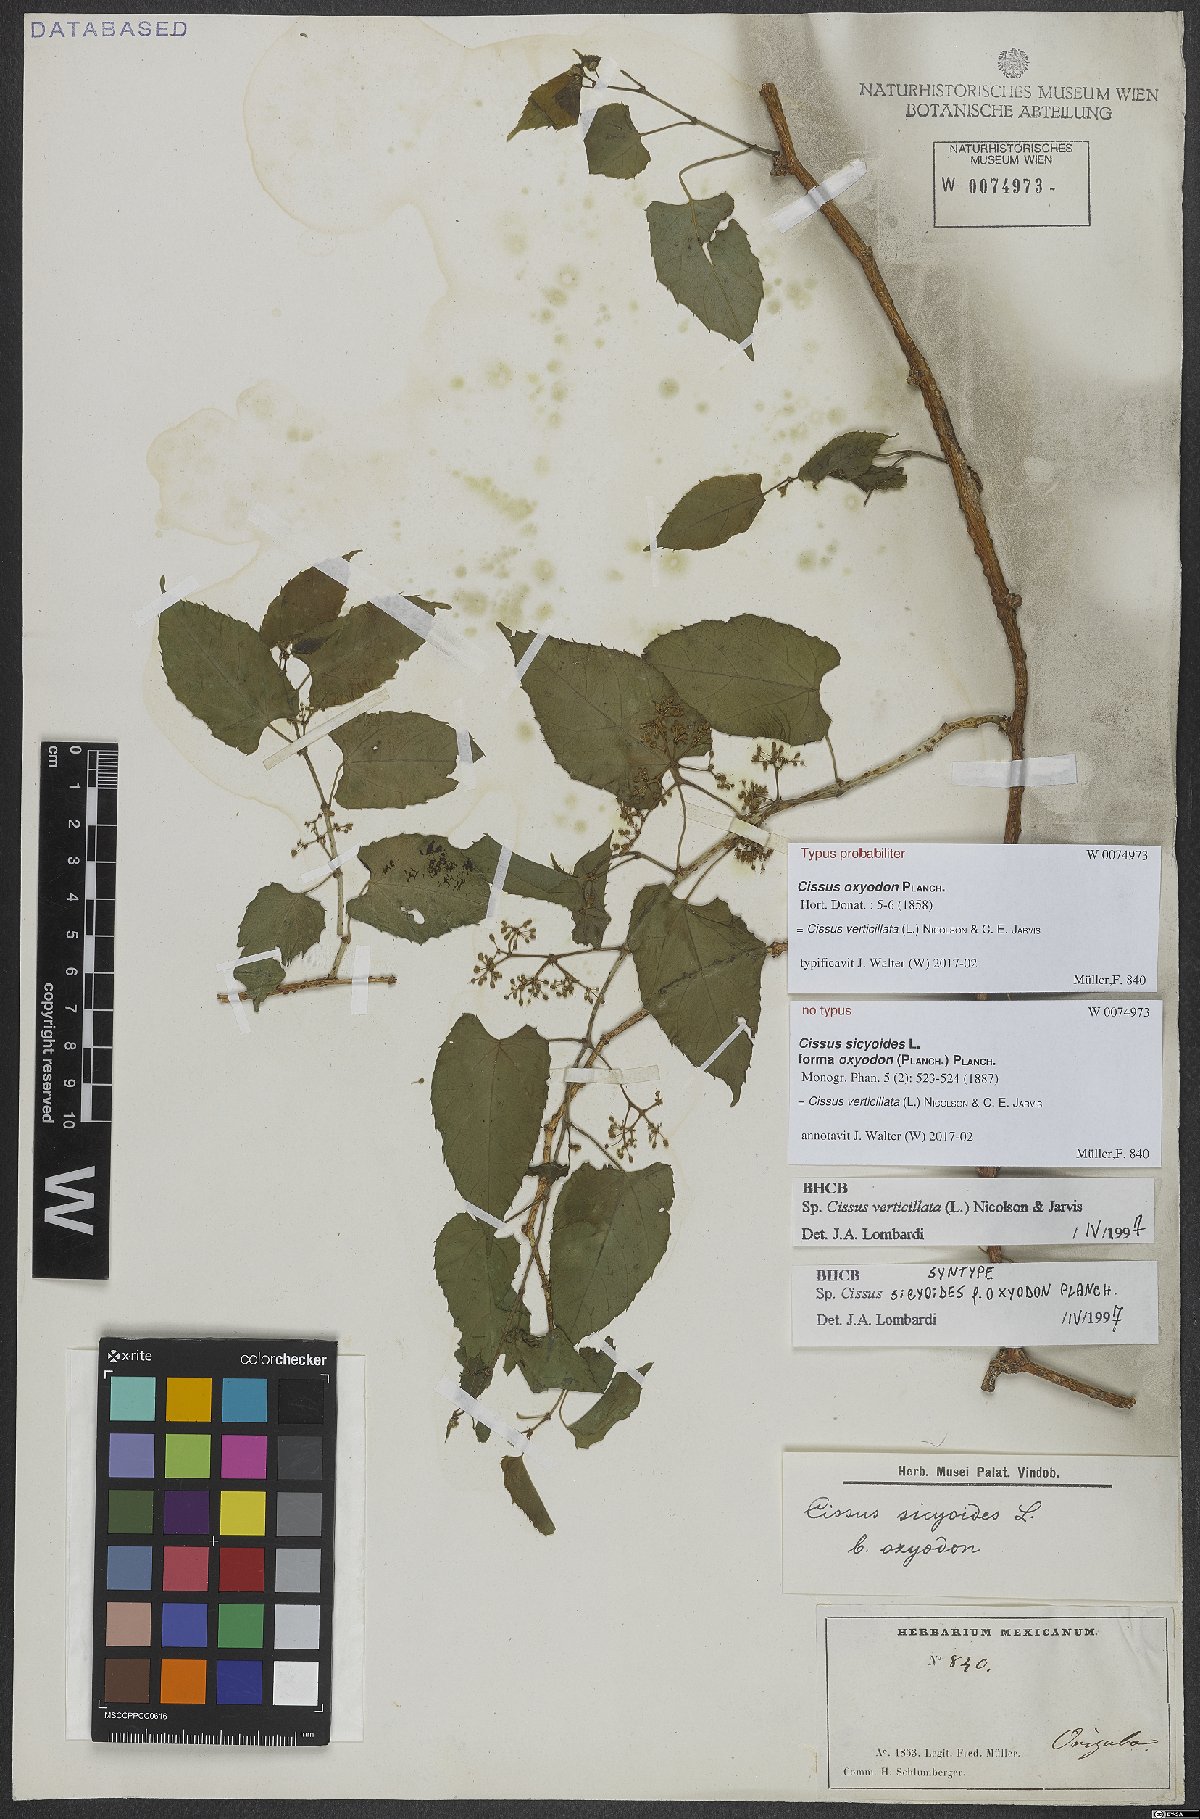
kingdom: Plantae
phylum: Tracheophyta
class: Magnoliopsida
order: Vitales
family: Vitaceae
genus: Cissus
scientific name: Cissus verticillata
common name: Princess vine
